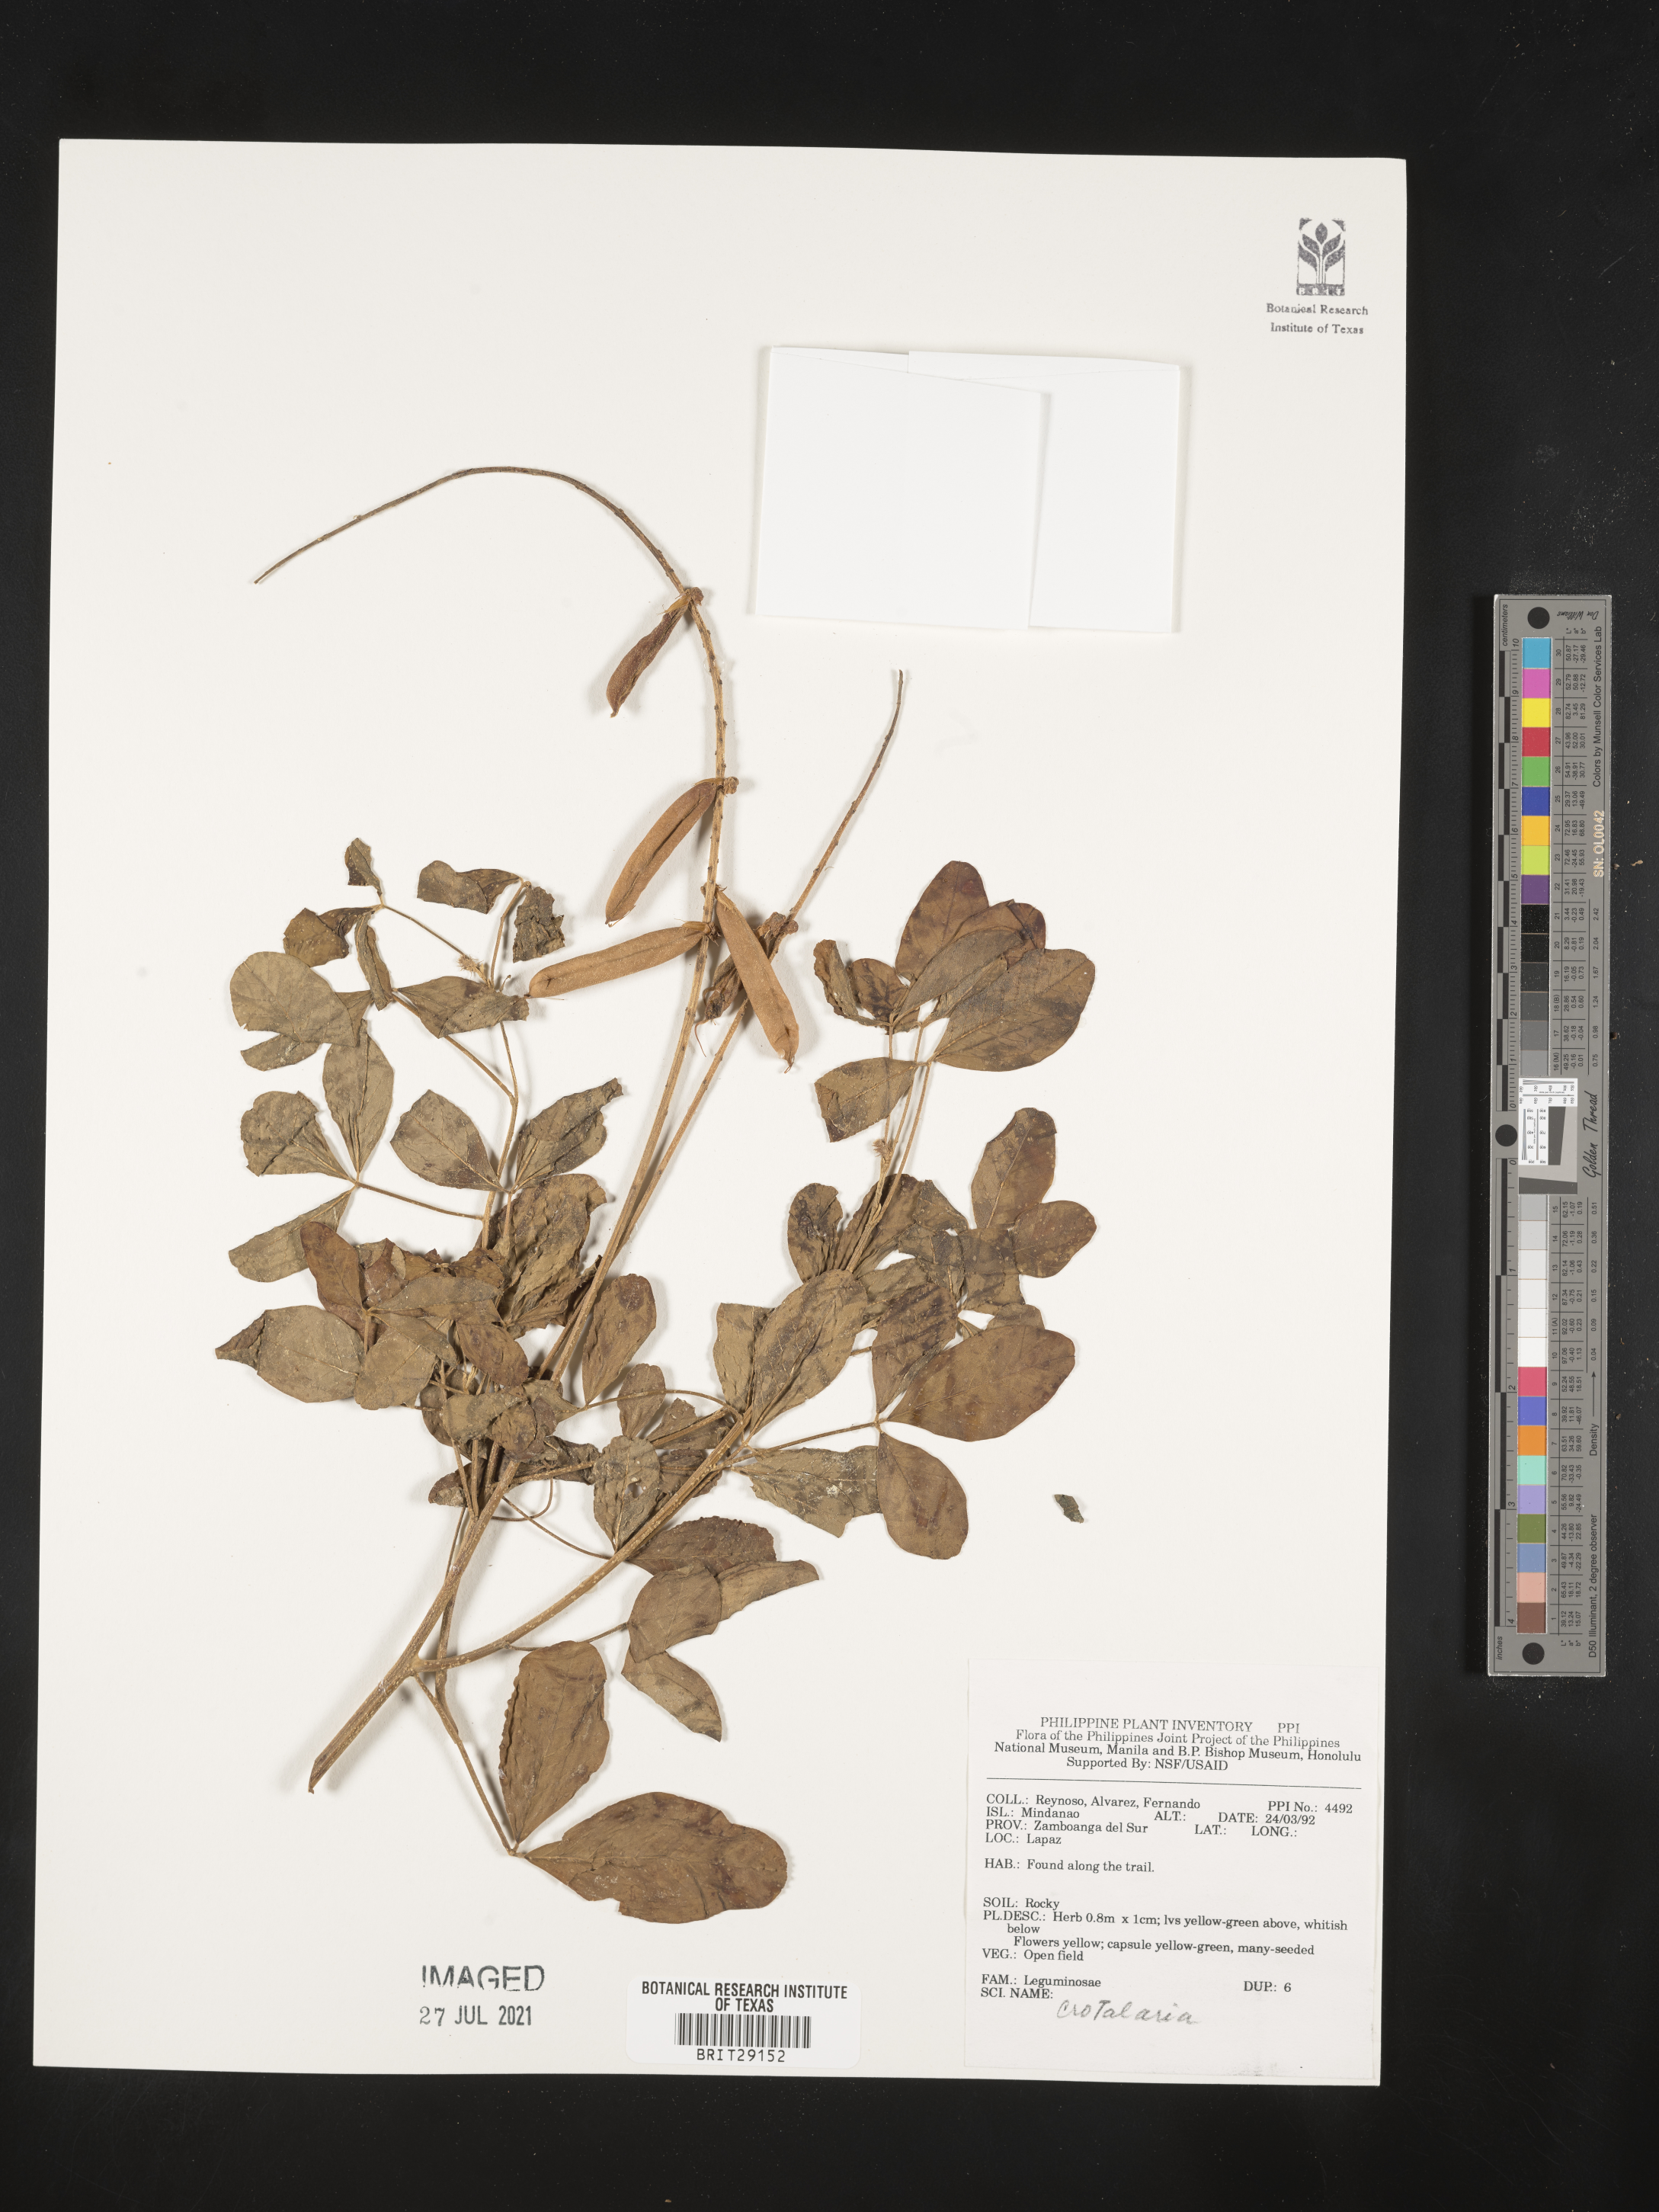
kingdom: Plantae
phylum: Tracheophyta
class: Magnoliopsida
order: Fabales
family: Fabaceae
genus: Crotalaria
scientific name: Crotalaria
